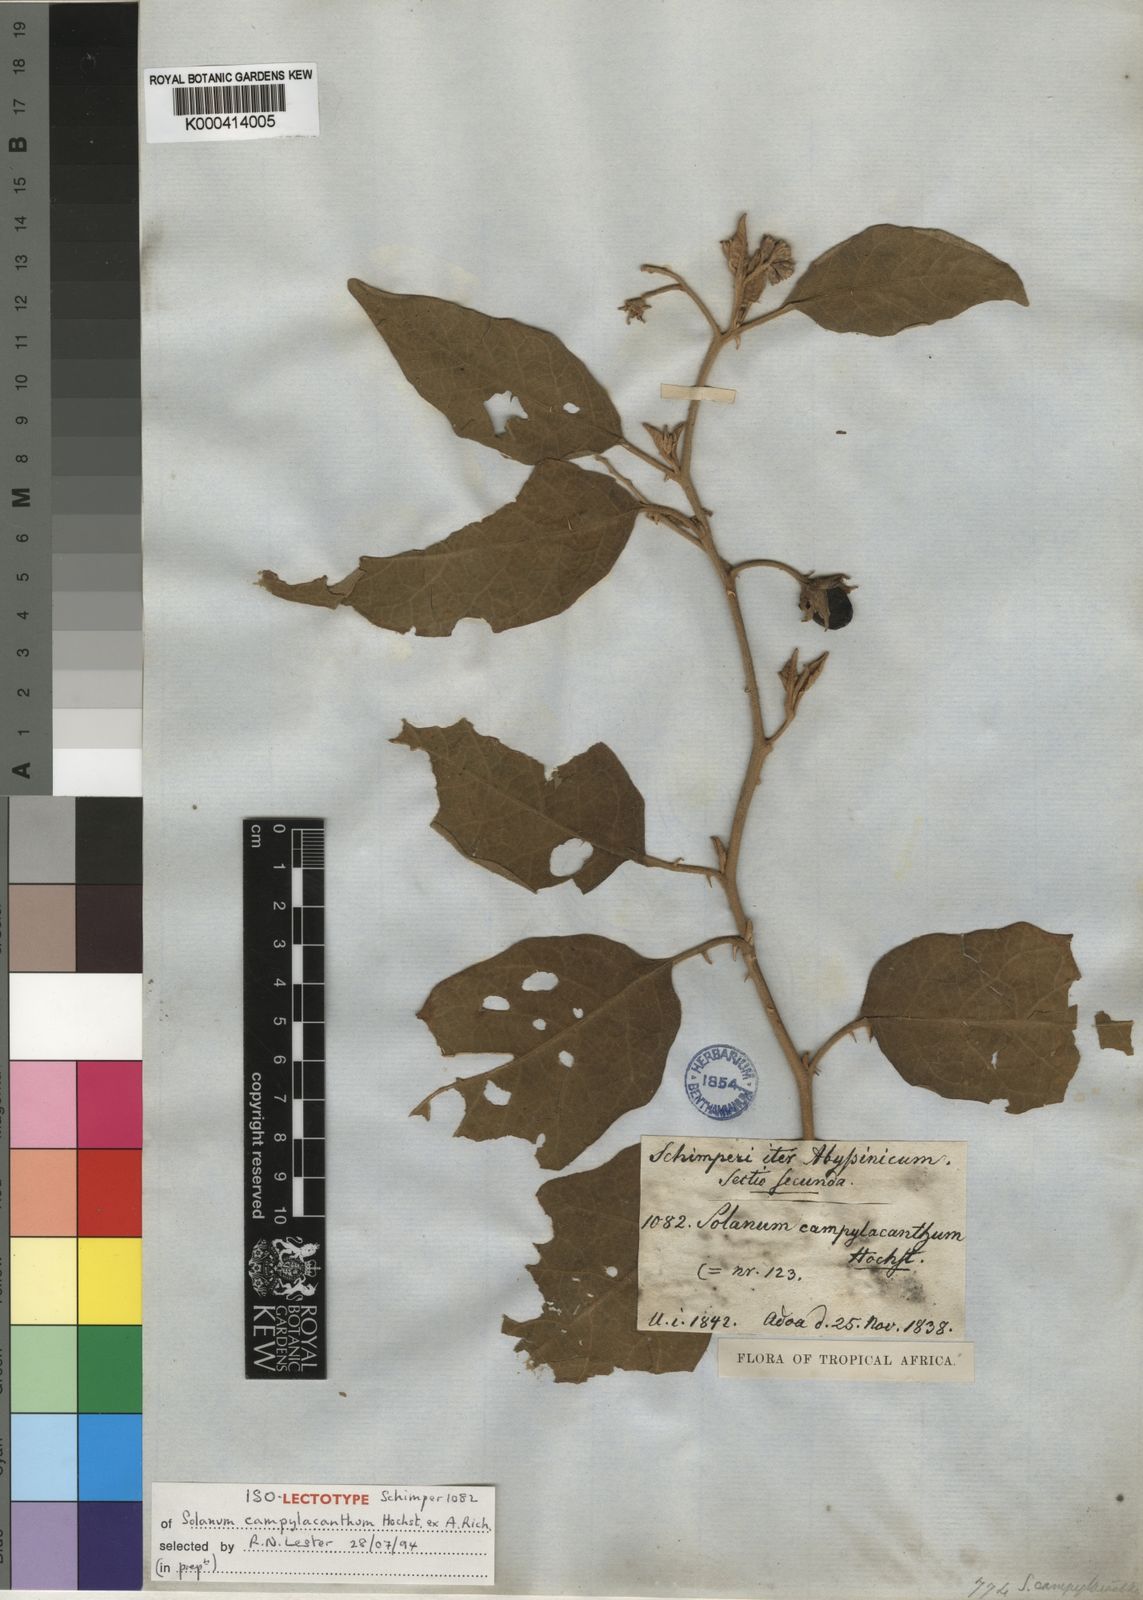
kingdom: Plantae
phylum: Tracheophyta
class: Magnoliopsida
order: Solanales
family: Solanaceae
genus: Solanum
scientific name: Solanum incanum
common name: Bitter apple
